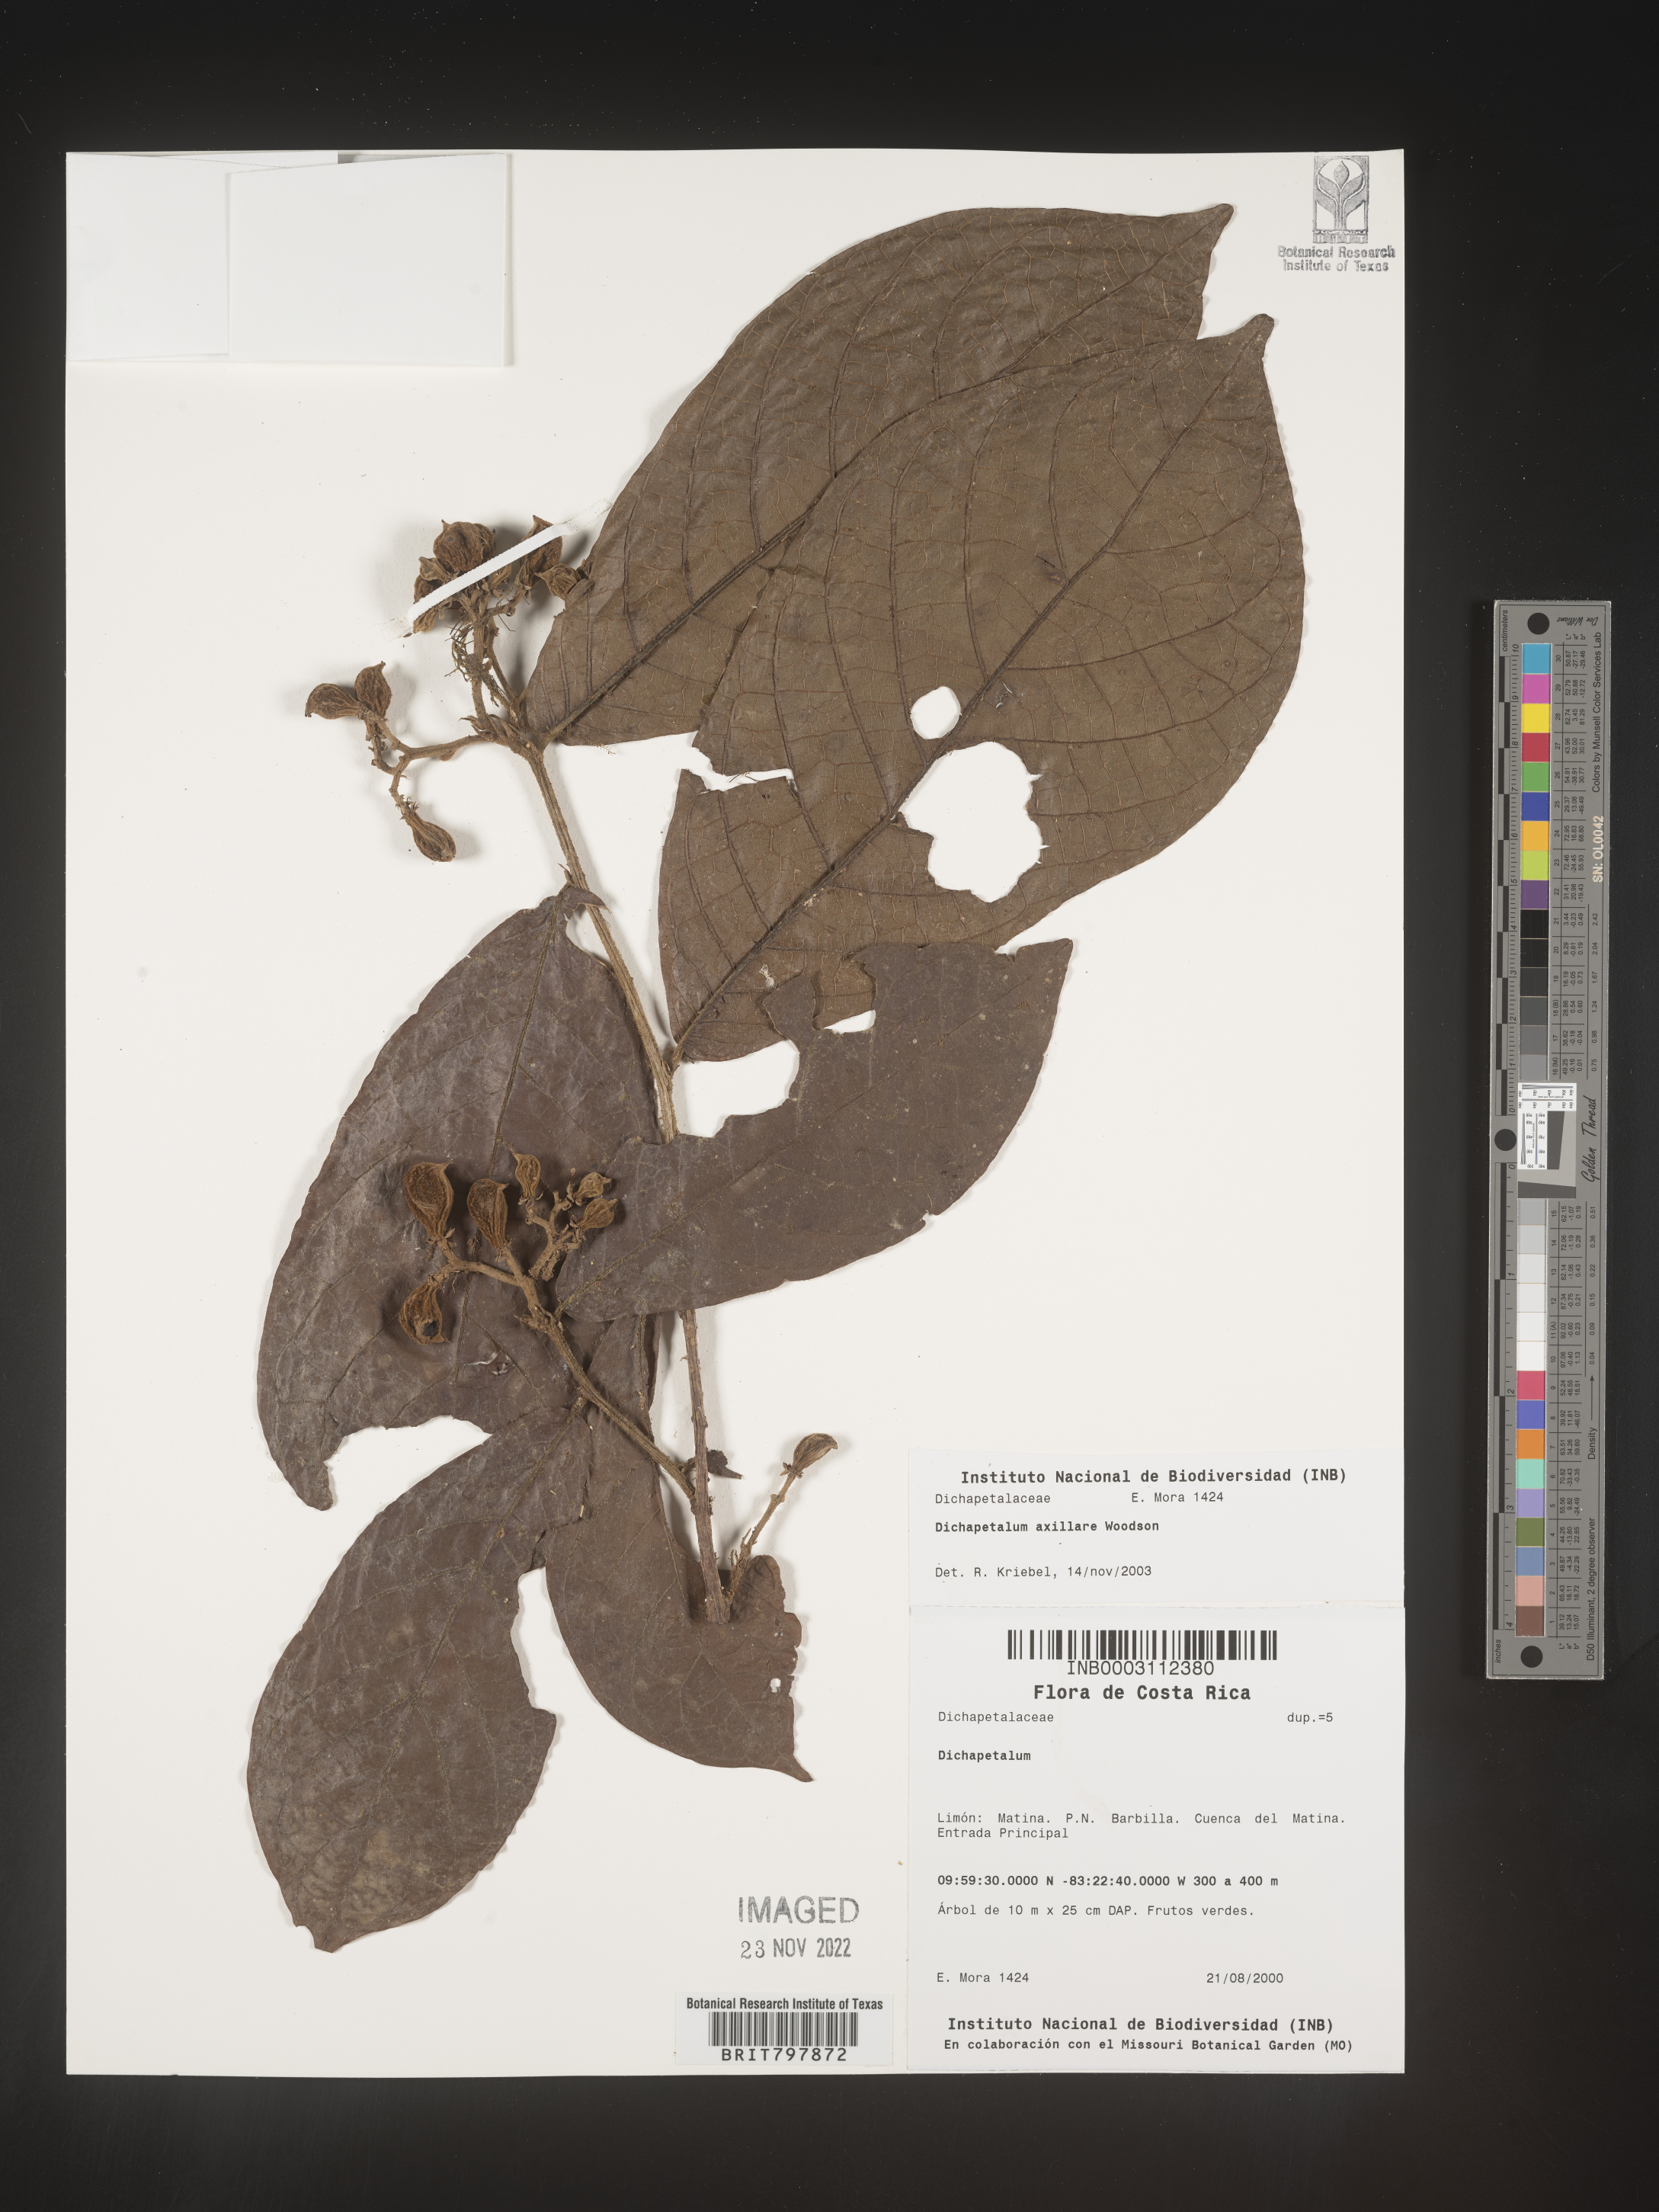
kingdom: Plantae
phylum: Tracheophyta
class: Magnoliopsida
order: Malpighiales
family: Dichapetalaceae
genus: Dichapetalum
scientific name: Dichapetalum
